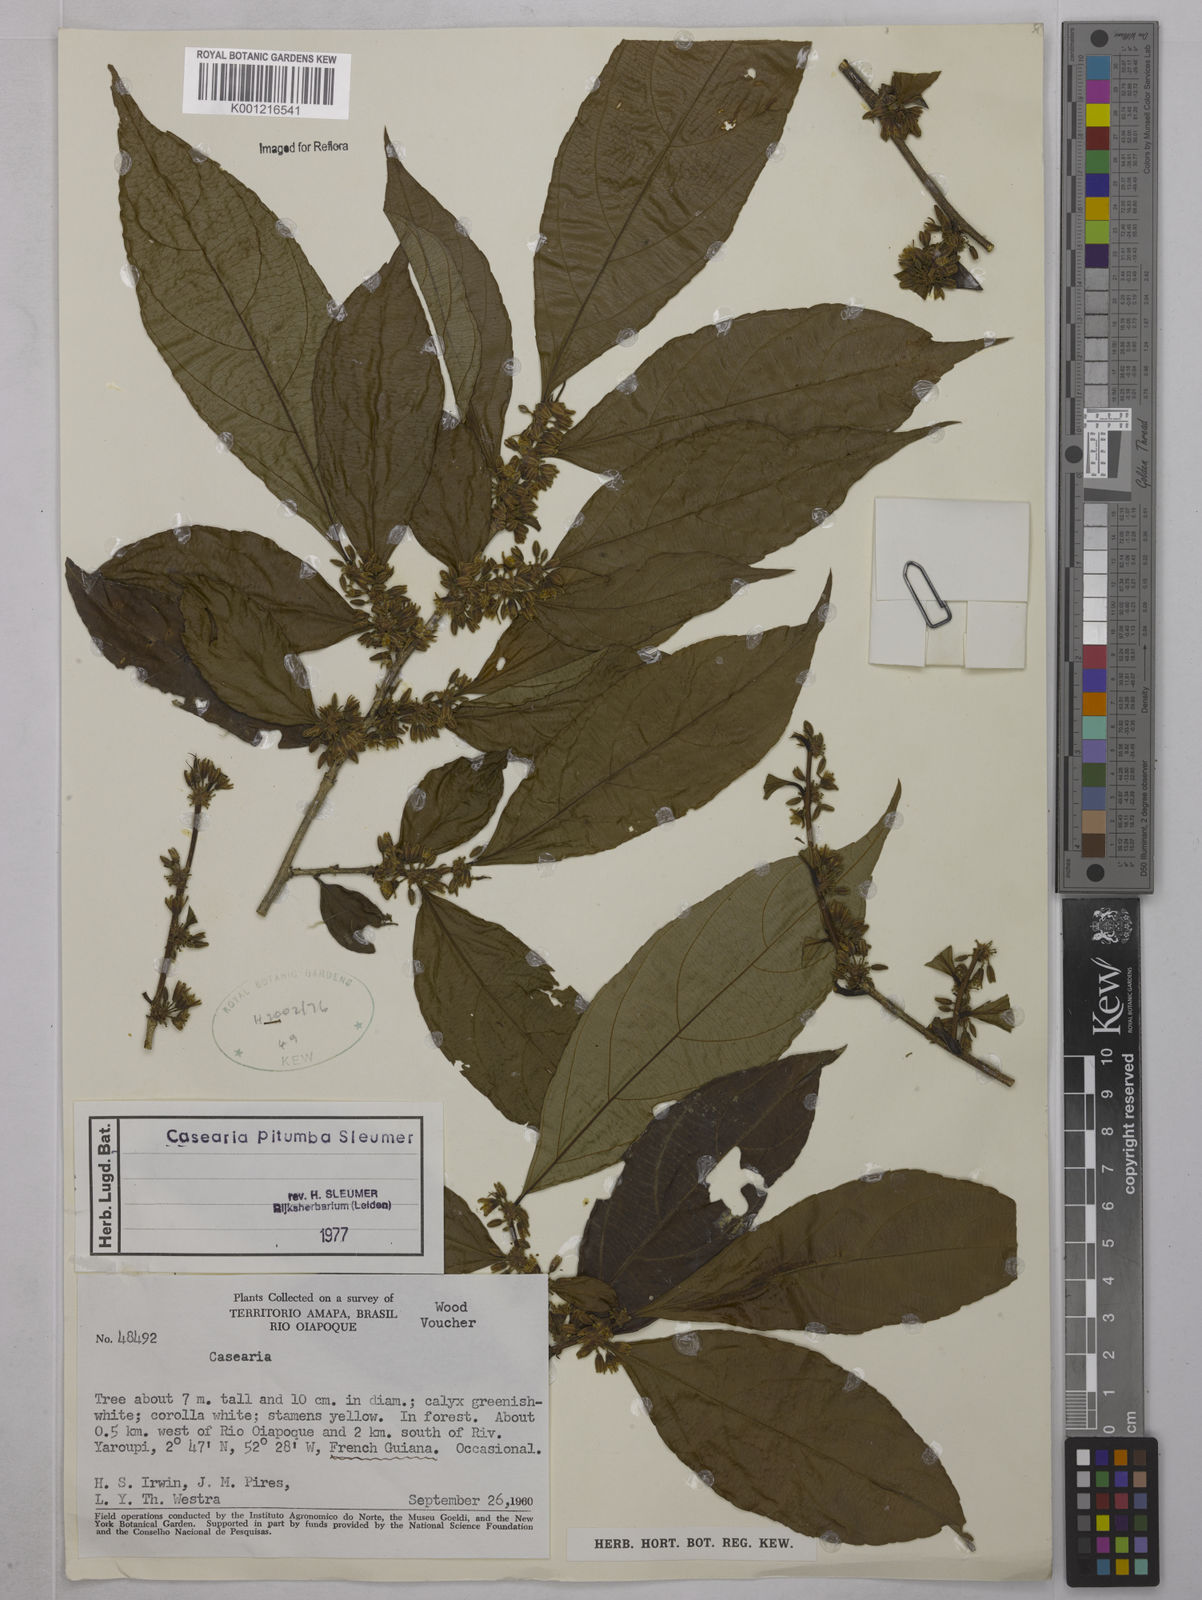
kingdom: Plantae
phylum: Tracheophyta
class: Magnoliopsida
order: Malpighiales
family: Salicaceae
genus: Casearia
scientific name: Casearia pitumba
